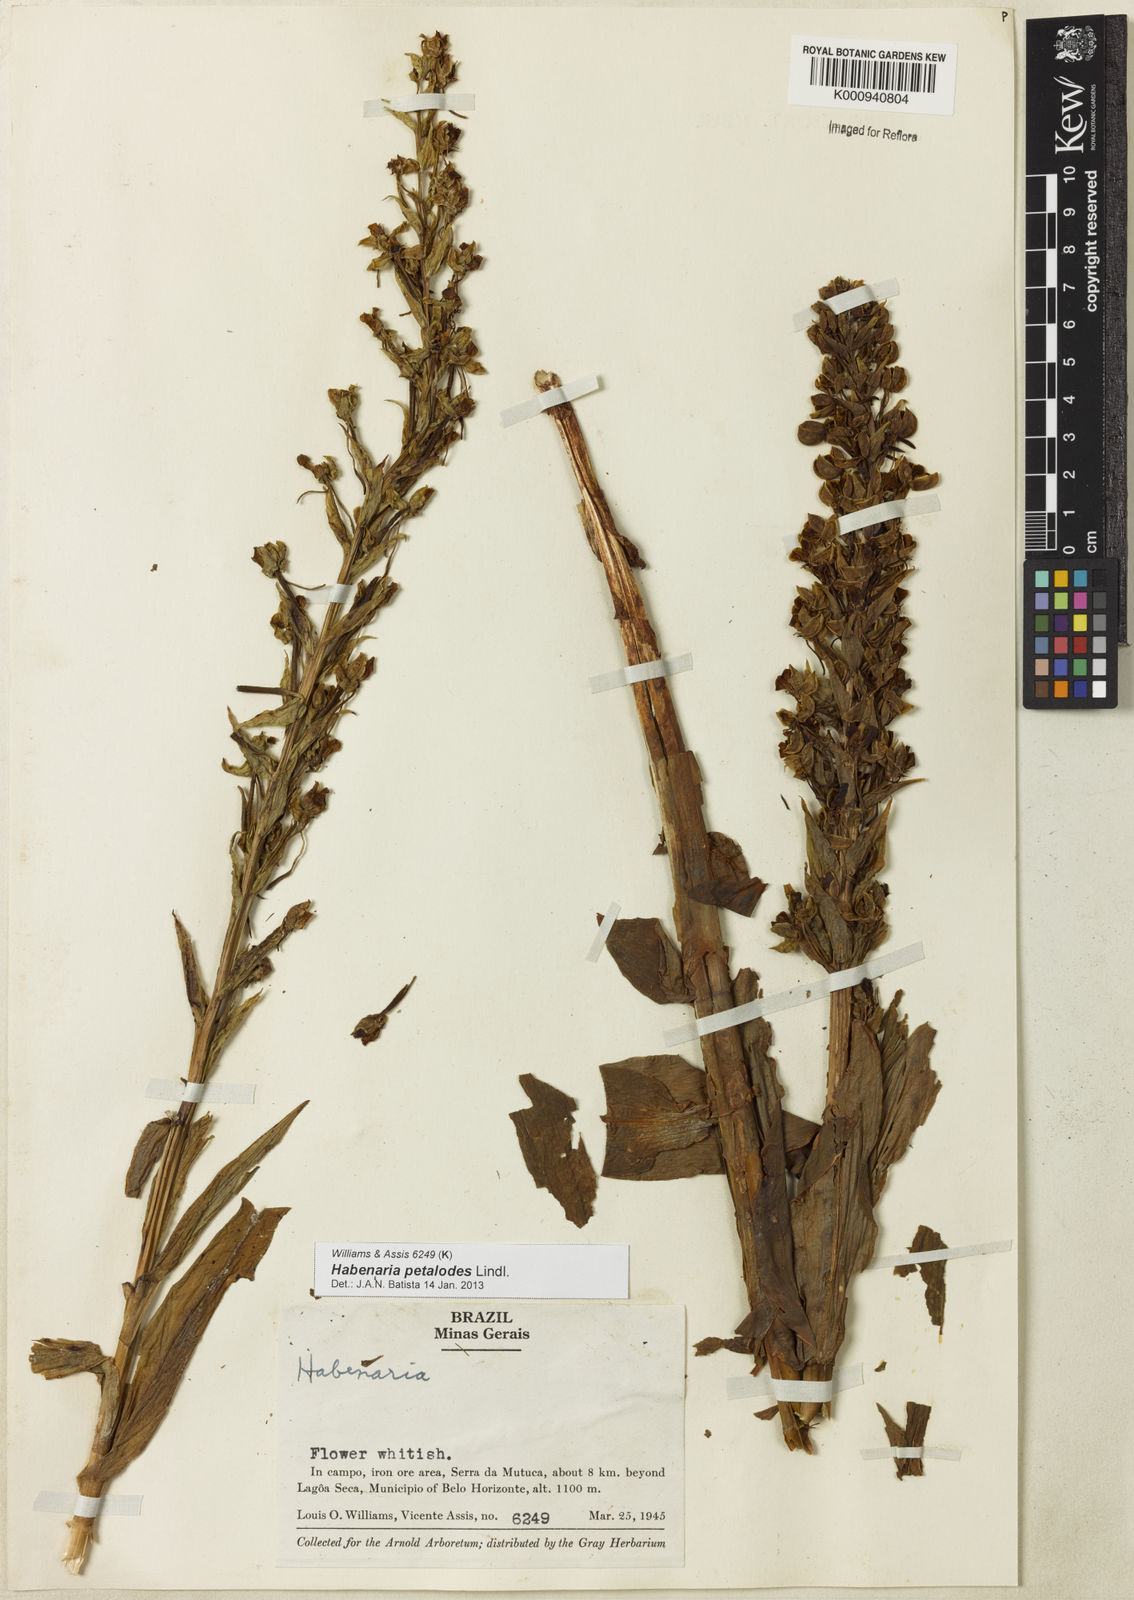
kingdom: Plantae
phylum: Tracheophyta
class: Liliopsida
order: Asparagales
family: Orchidaceae
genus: Habenaria
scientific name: Habenaria petalodes
